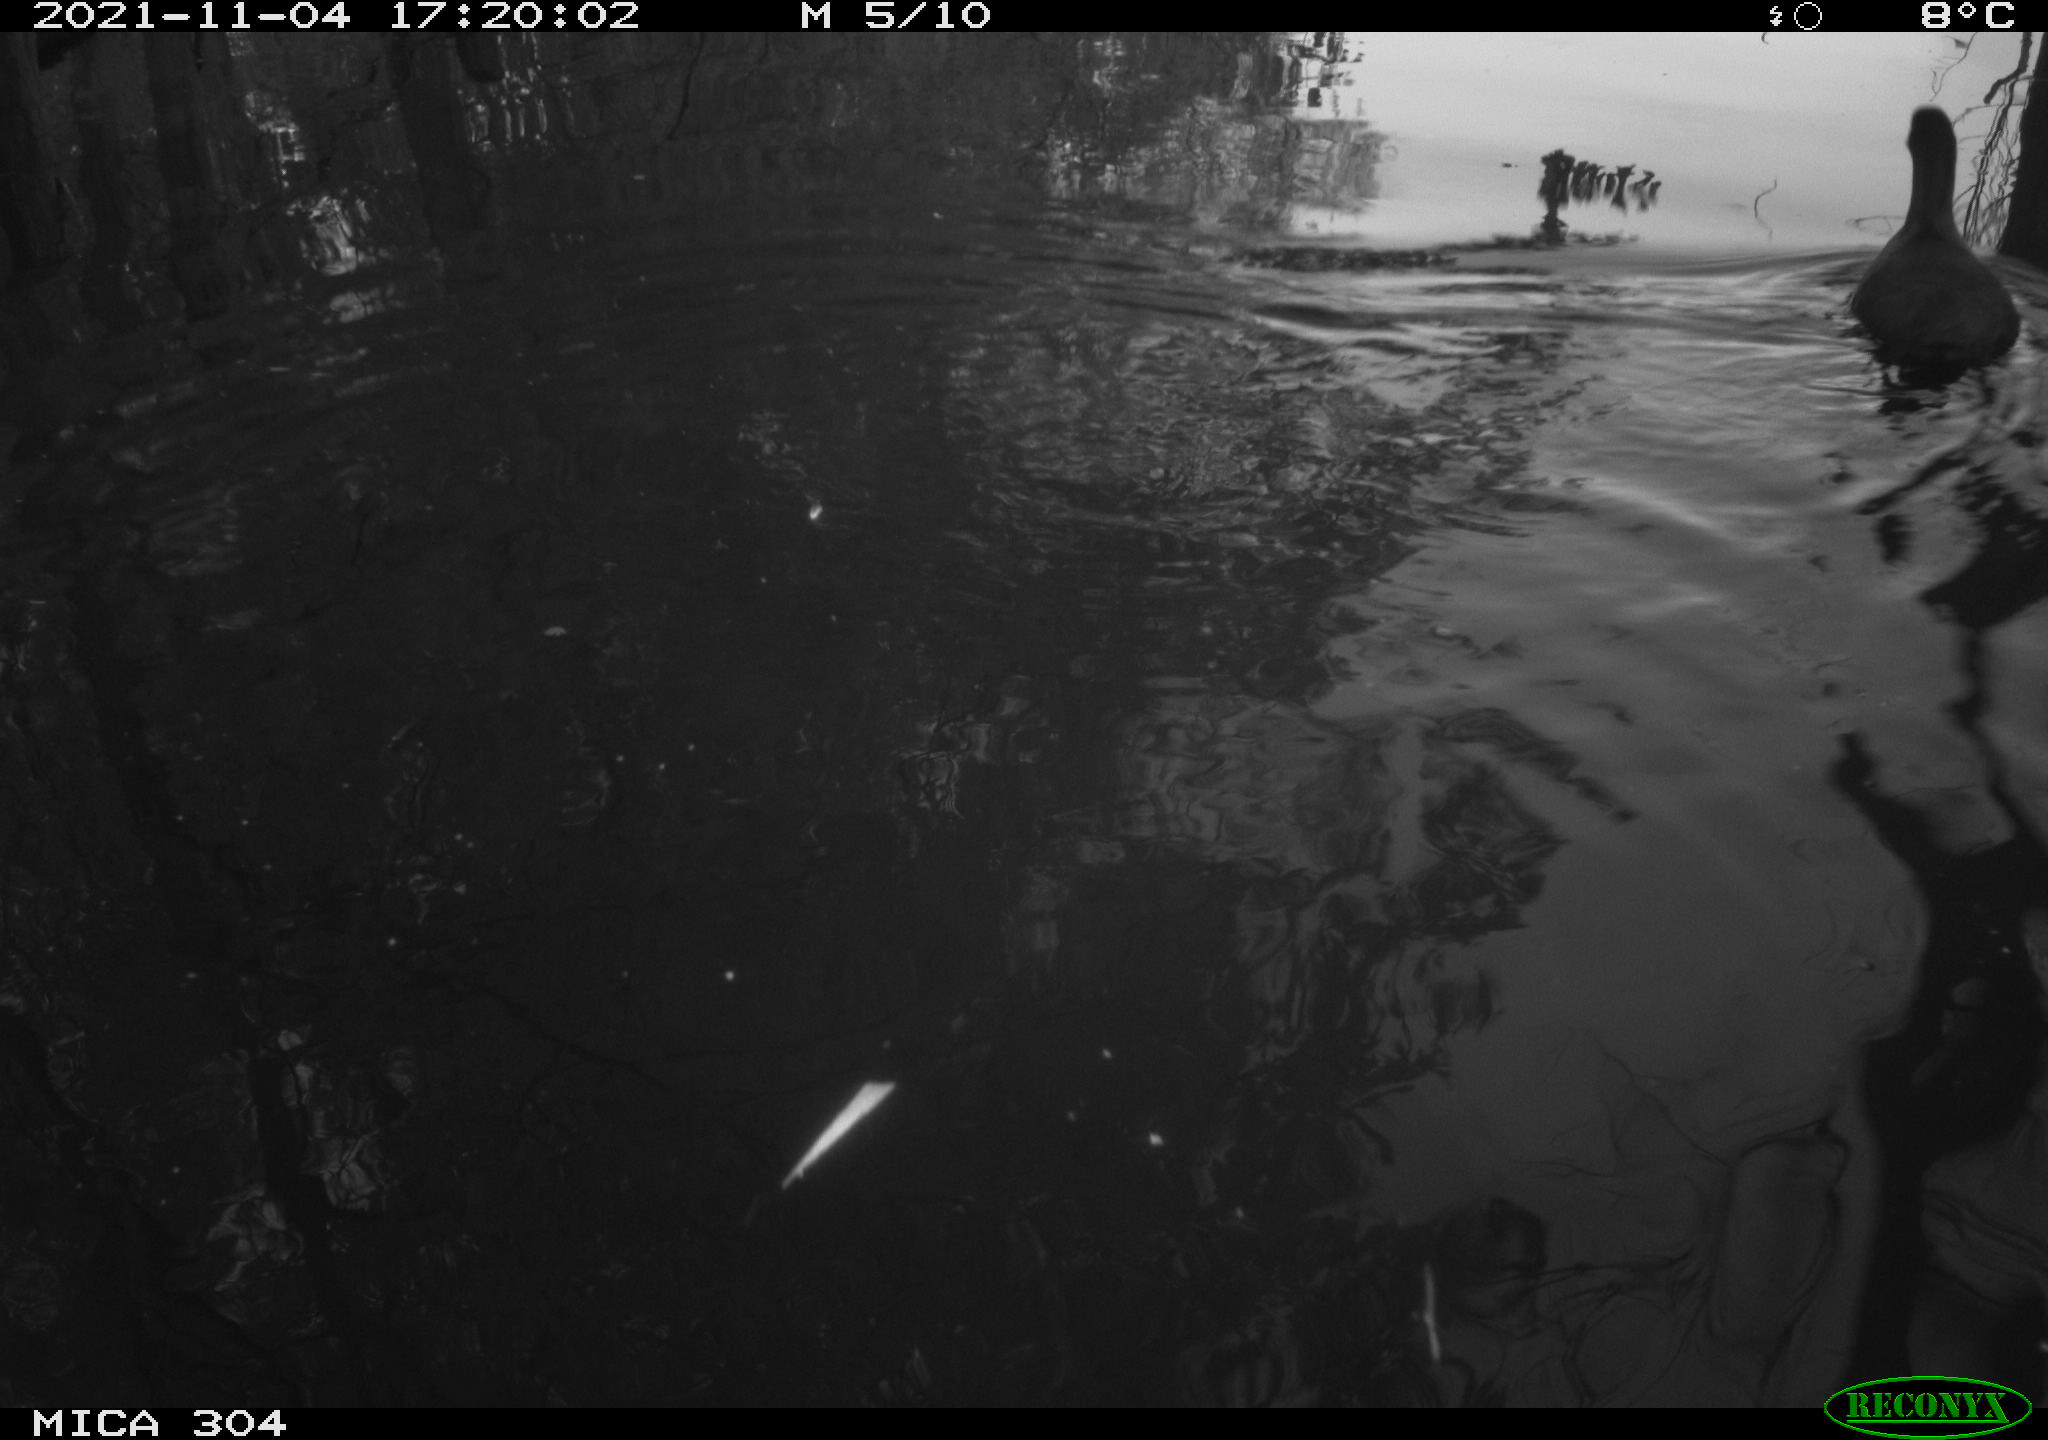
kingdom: Animalia
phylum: Chordata
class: Aves
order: Gruiformes
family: Rallidae
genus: Fulica
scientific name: Fulica atra
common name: Eurasian coot
